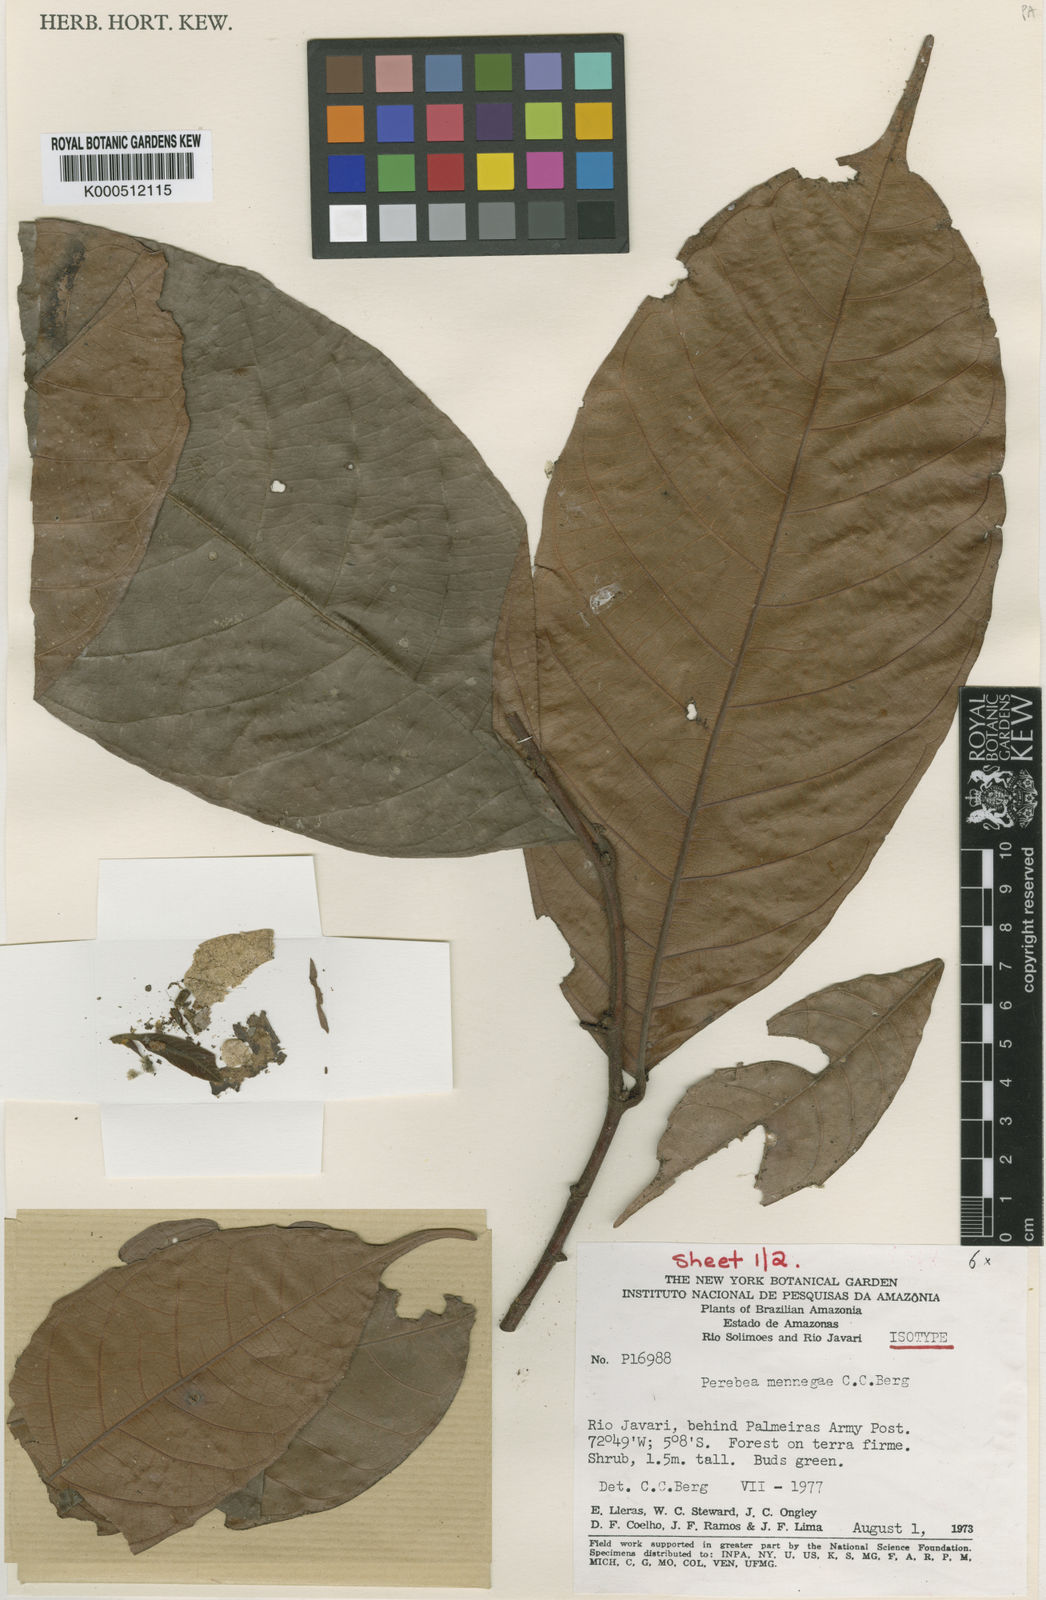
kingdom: Plantae
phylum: Tracheophyta
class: Magnoliopsida
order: Rosales
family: Moraceae
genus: Perebea
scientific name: Perebea mennegae
